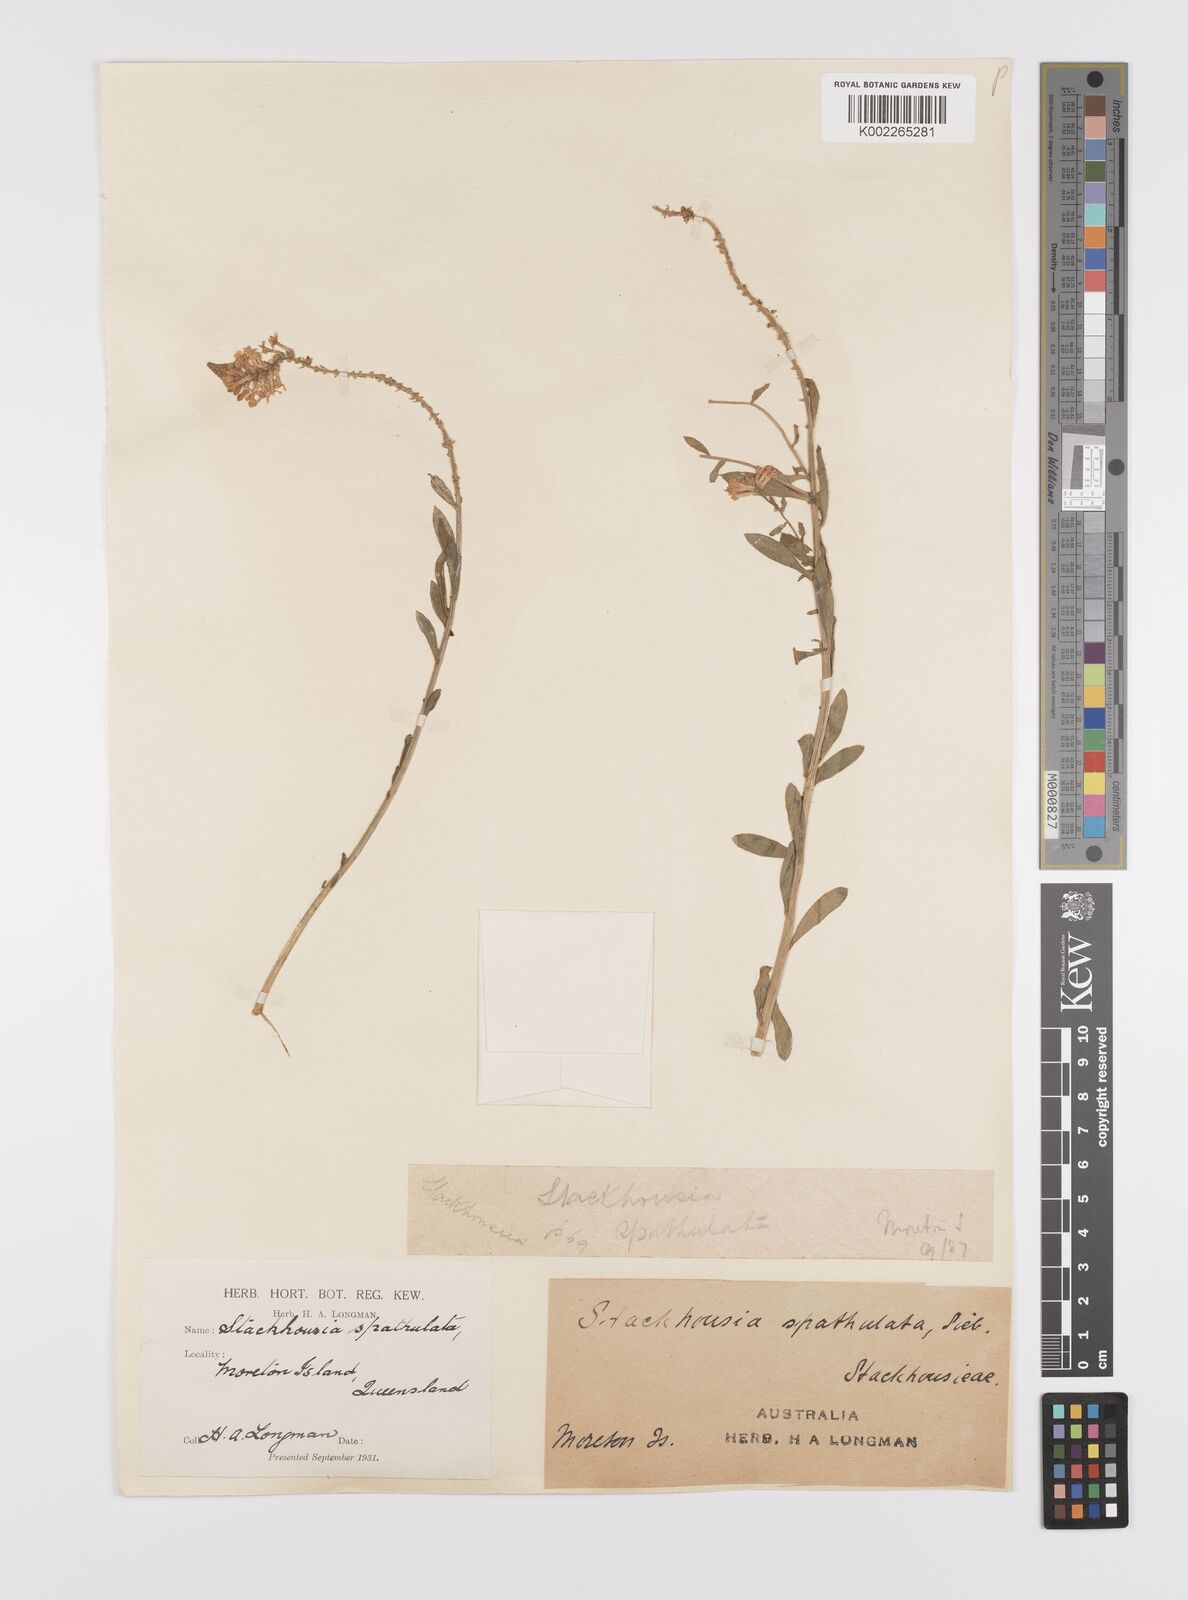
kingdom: Plantae
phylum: Tracheophyta
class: Magnoliopsida
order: Celastrales
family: Celastraceae
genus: Stackhousia
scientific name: Stackhousia spathulata
